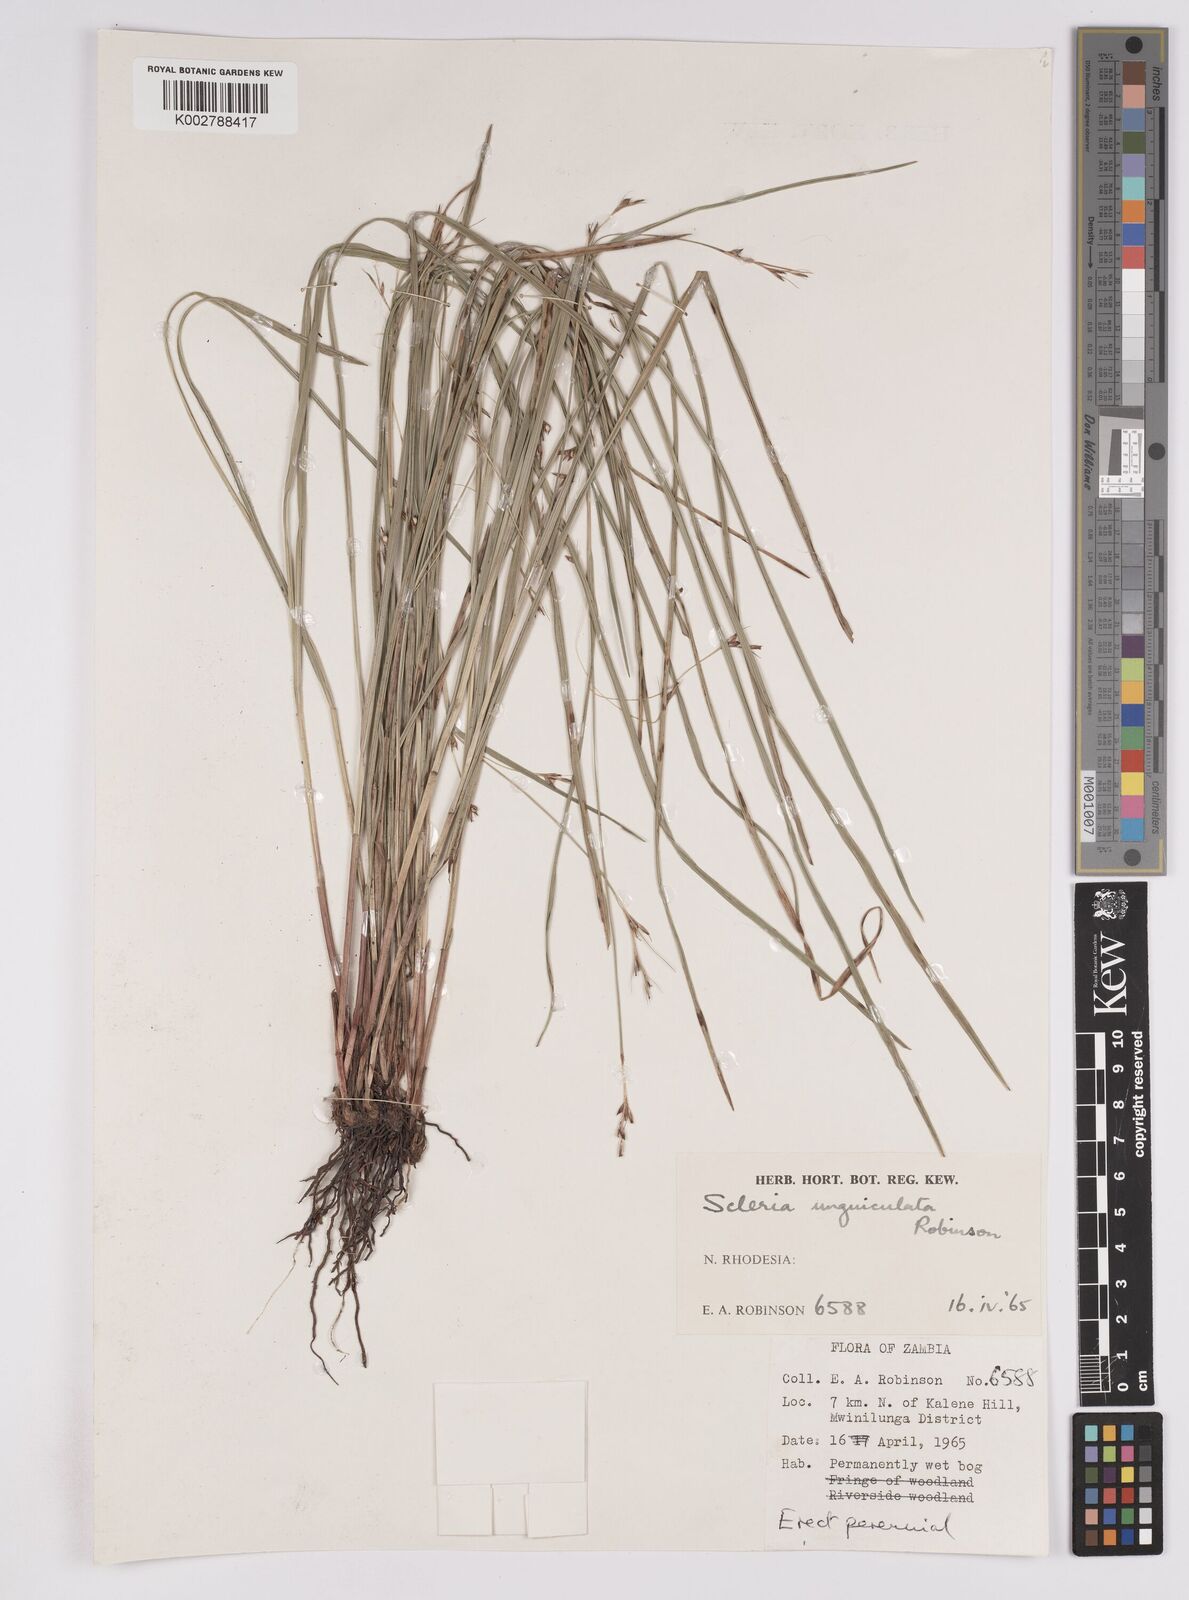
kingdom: Plantae
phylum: Tracheophyta
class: Liliopsida
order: Poales
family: Cyperaceae
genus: Scleria
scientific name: Scleria unguiculata
